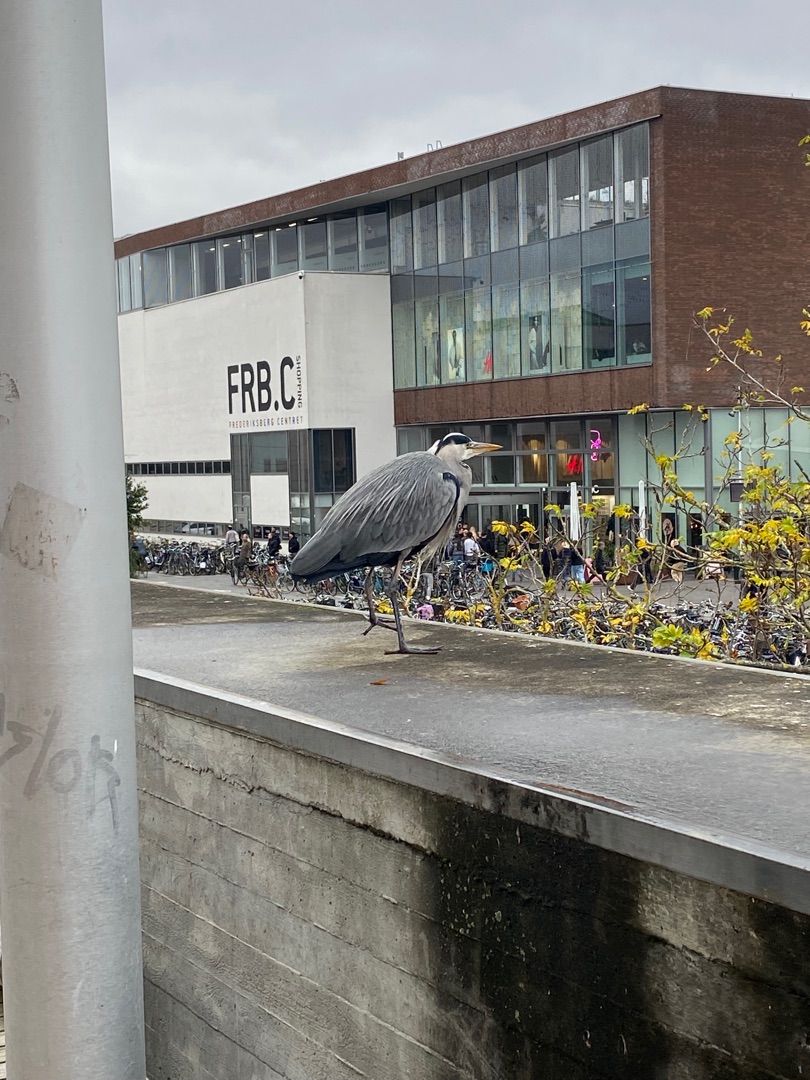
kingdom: Animalia
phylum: Chordata
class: Aves
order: Pelecaniformes
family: Ardeidae
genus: Ardea
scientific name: Ardea cinerea
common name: Fiskehejre
